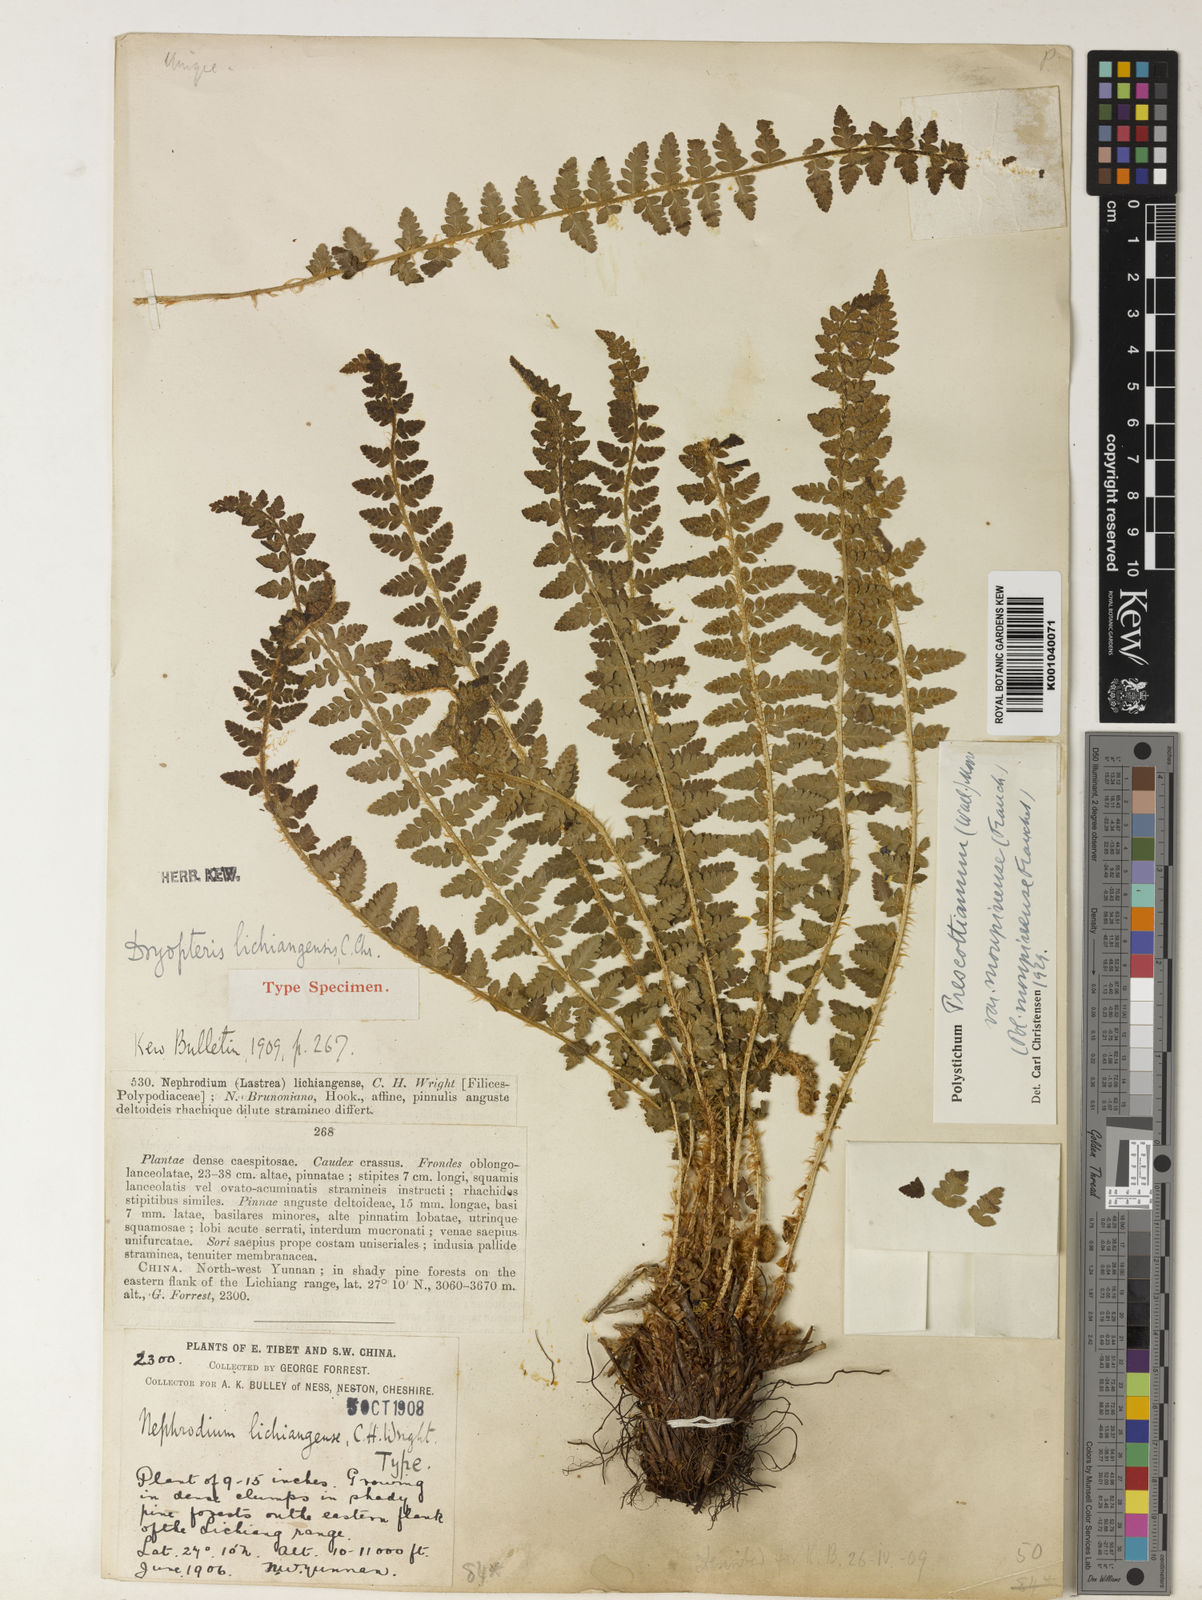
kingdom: Plantae
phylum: Tracheophyta
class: Polypodiopsida
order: Polypodiales
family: Dryopteridaceae
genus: Polystichum
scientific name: Polystichum shensiense
